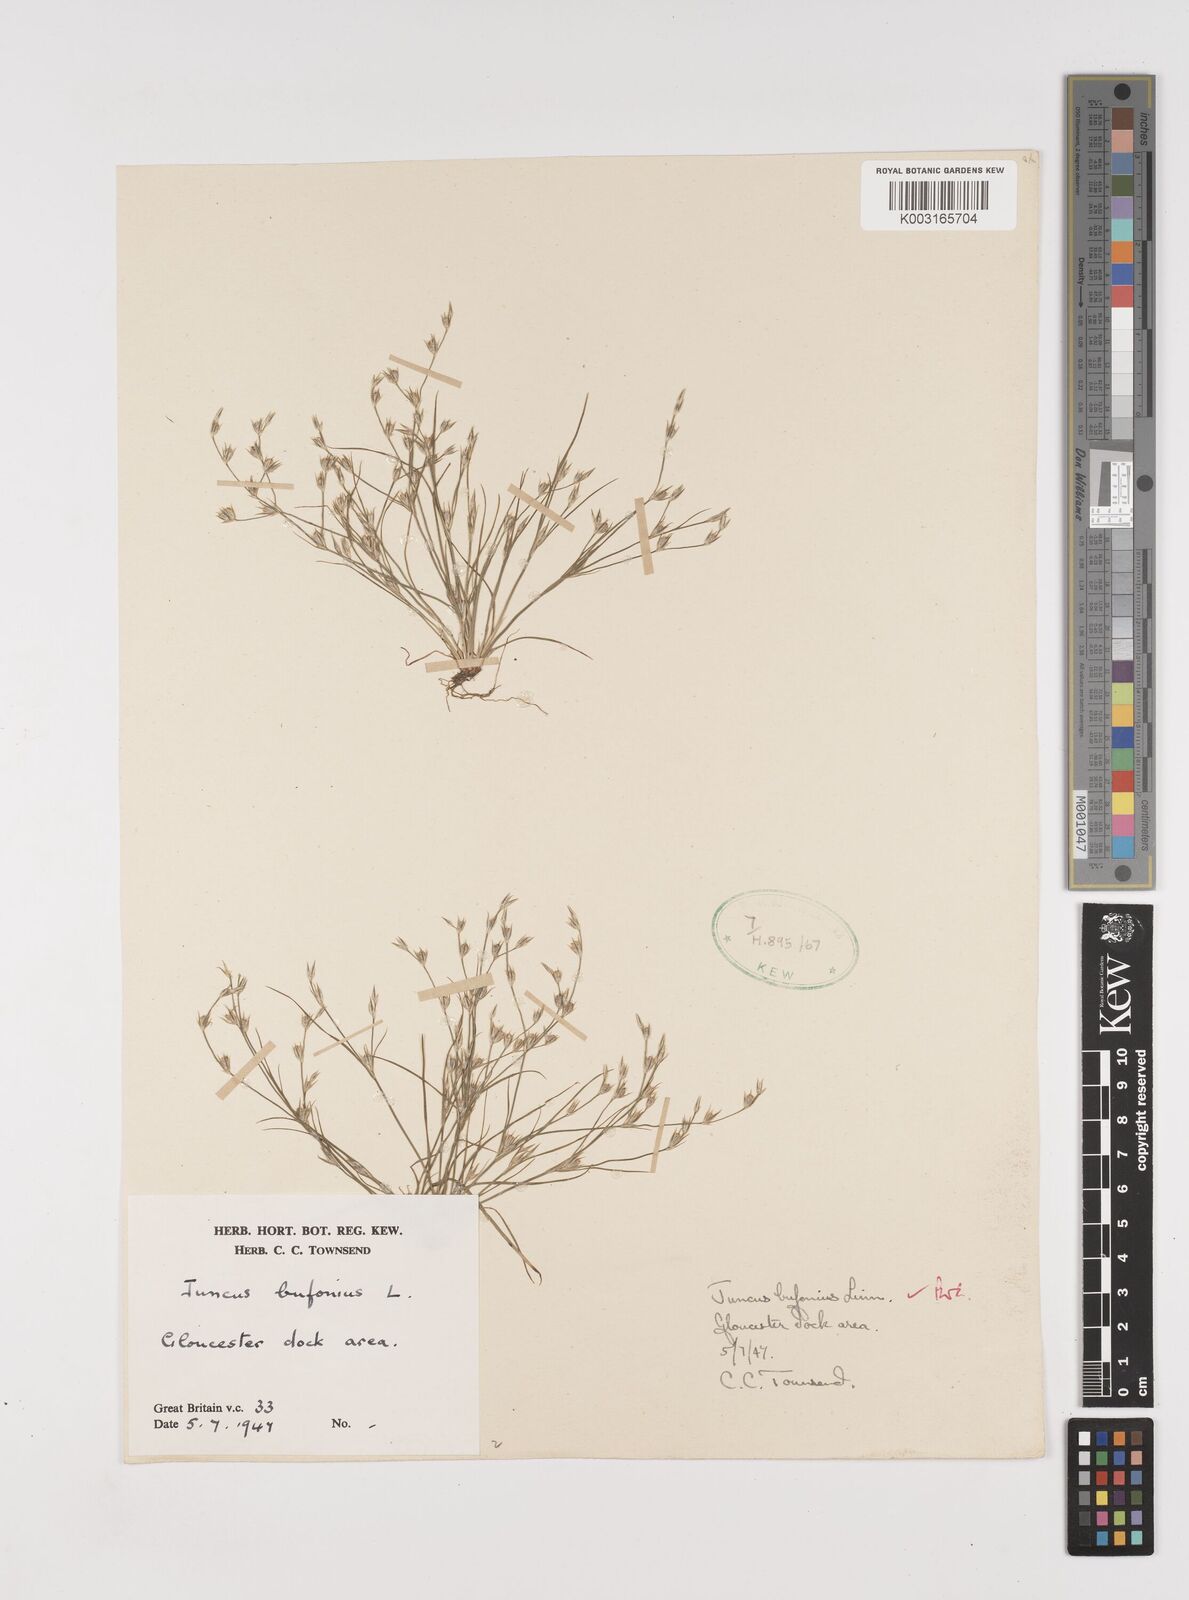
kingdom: Plantae
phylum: Tracheophyta
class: Liliopsida
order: Poales
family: Juncaceae
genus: Juncus
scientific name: Juncus bufonius
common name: Toad rush
